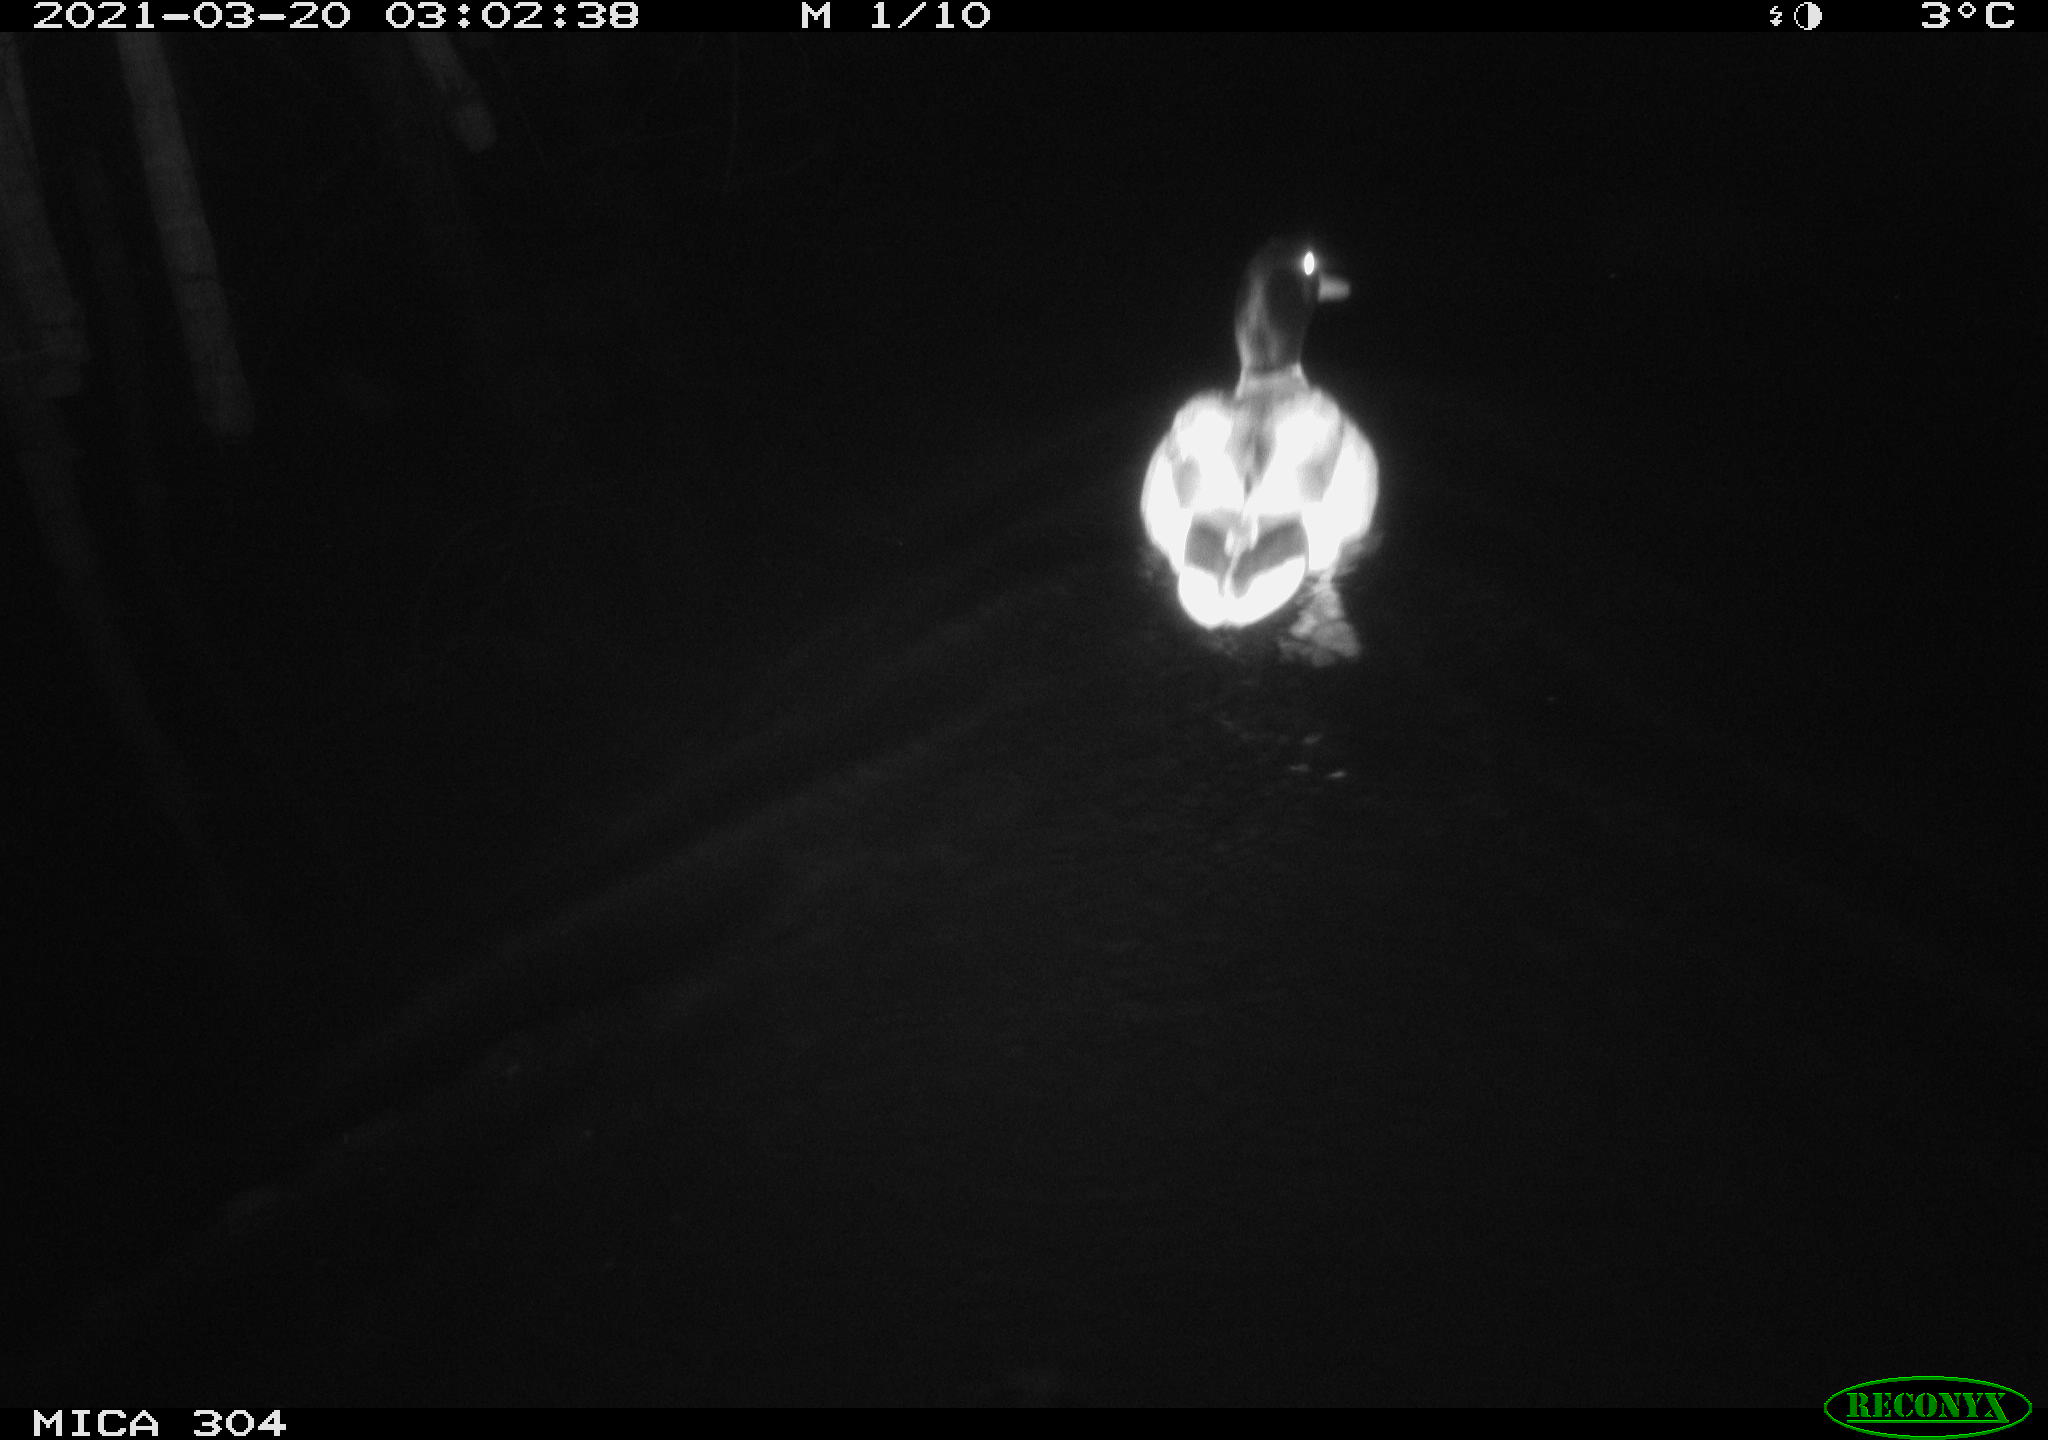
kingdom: Animalia
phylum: Chordata
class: Aves
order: Anseriformes
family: Anatidae
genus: Anas
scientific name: Anas platyrhynchos
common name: Mallard
